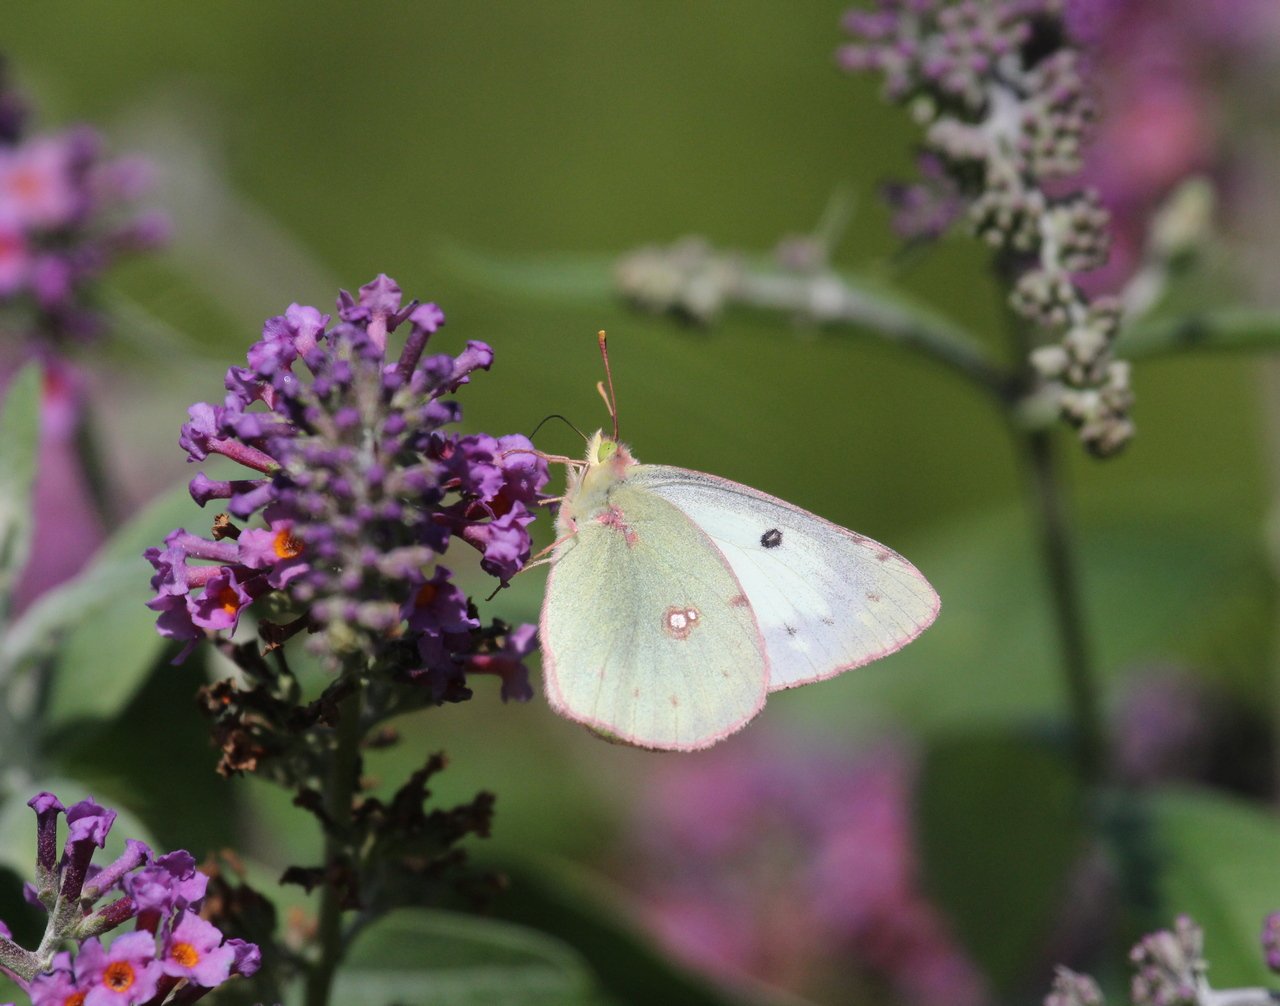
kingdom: Animalia
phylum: Arthropoda
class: Insecta
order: Lepidoptera
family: Pieridae
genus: Colias
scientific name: Colias philodice
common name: Clouded Sulphur
